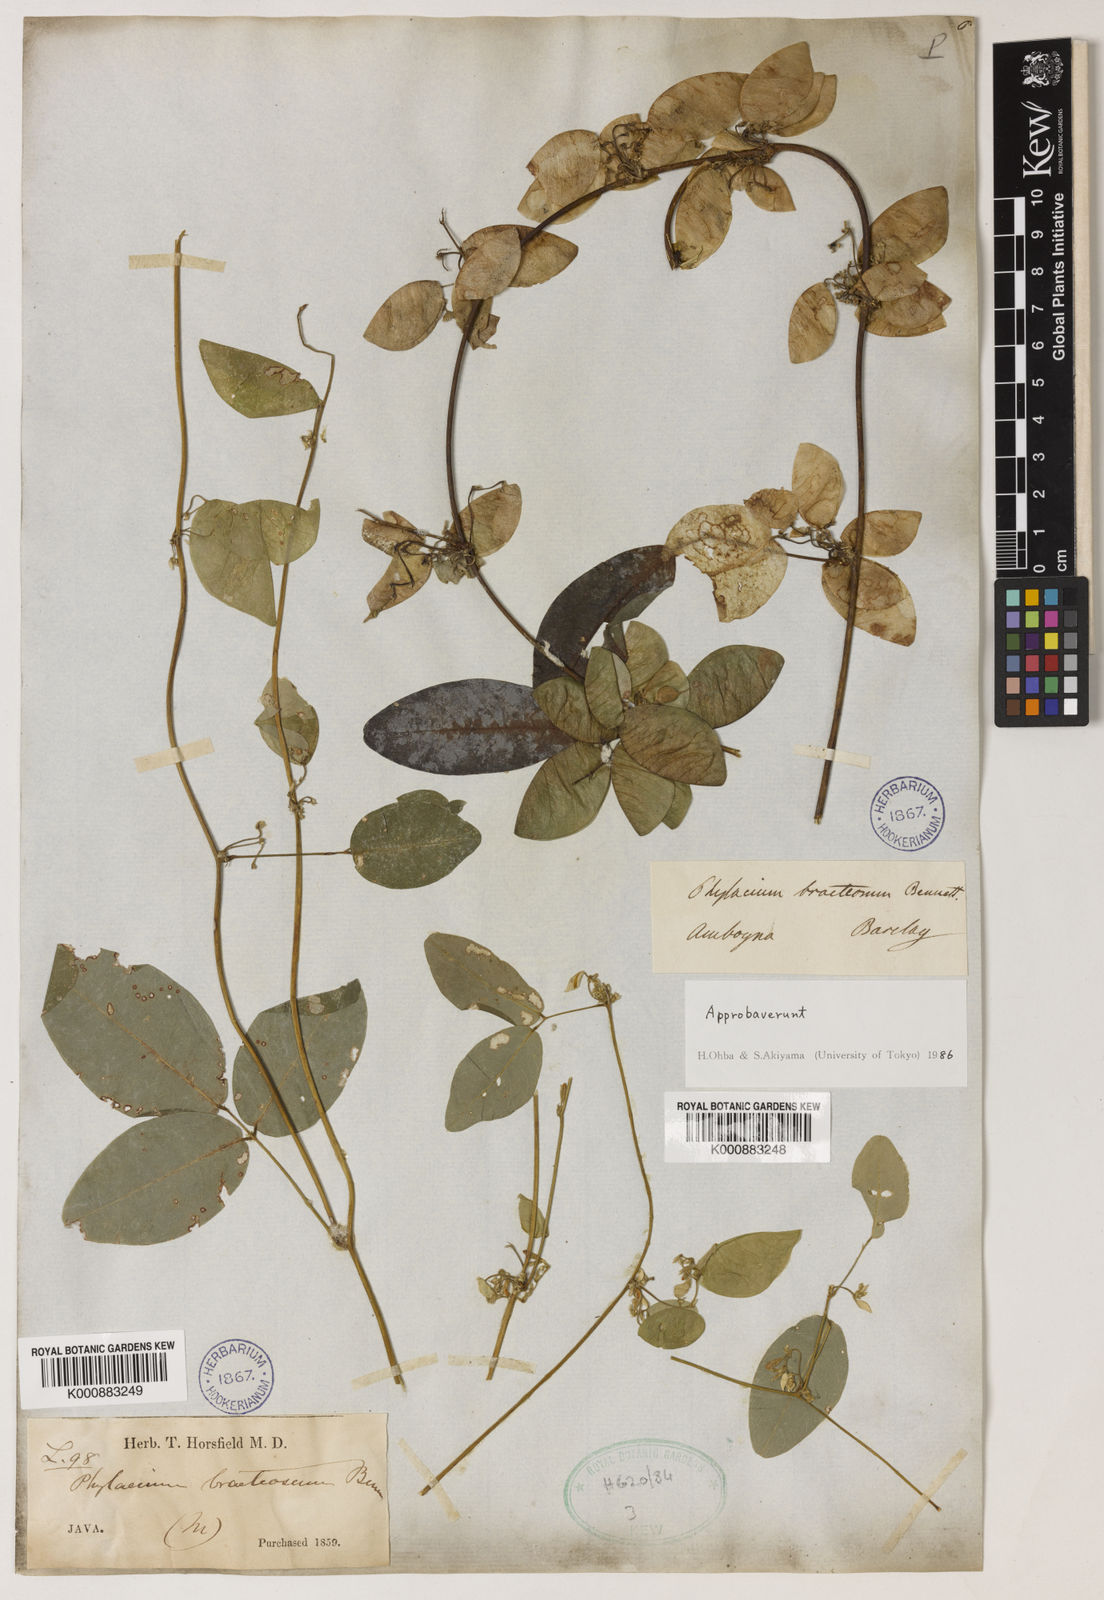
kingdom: Plantae
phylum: Tracheophyta
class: Magnoliopsida
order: Fabales
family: Fabaceae
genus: Phylacium
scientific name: Phylacium bracteosum
